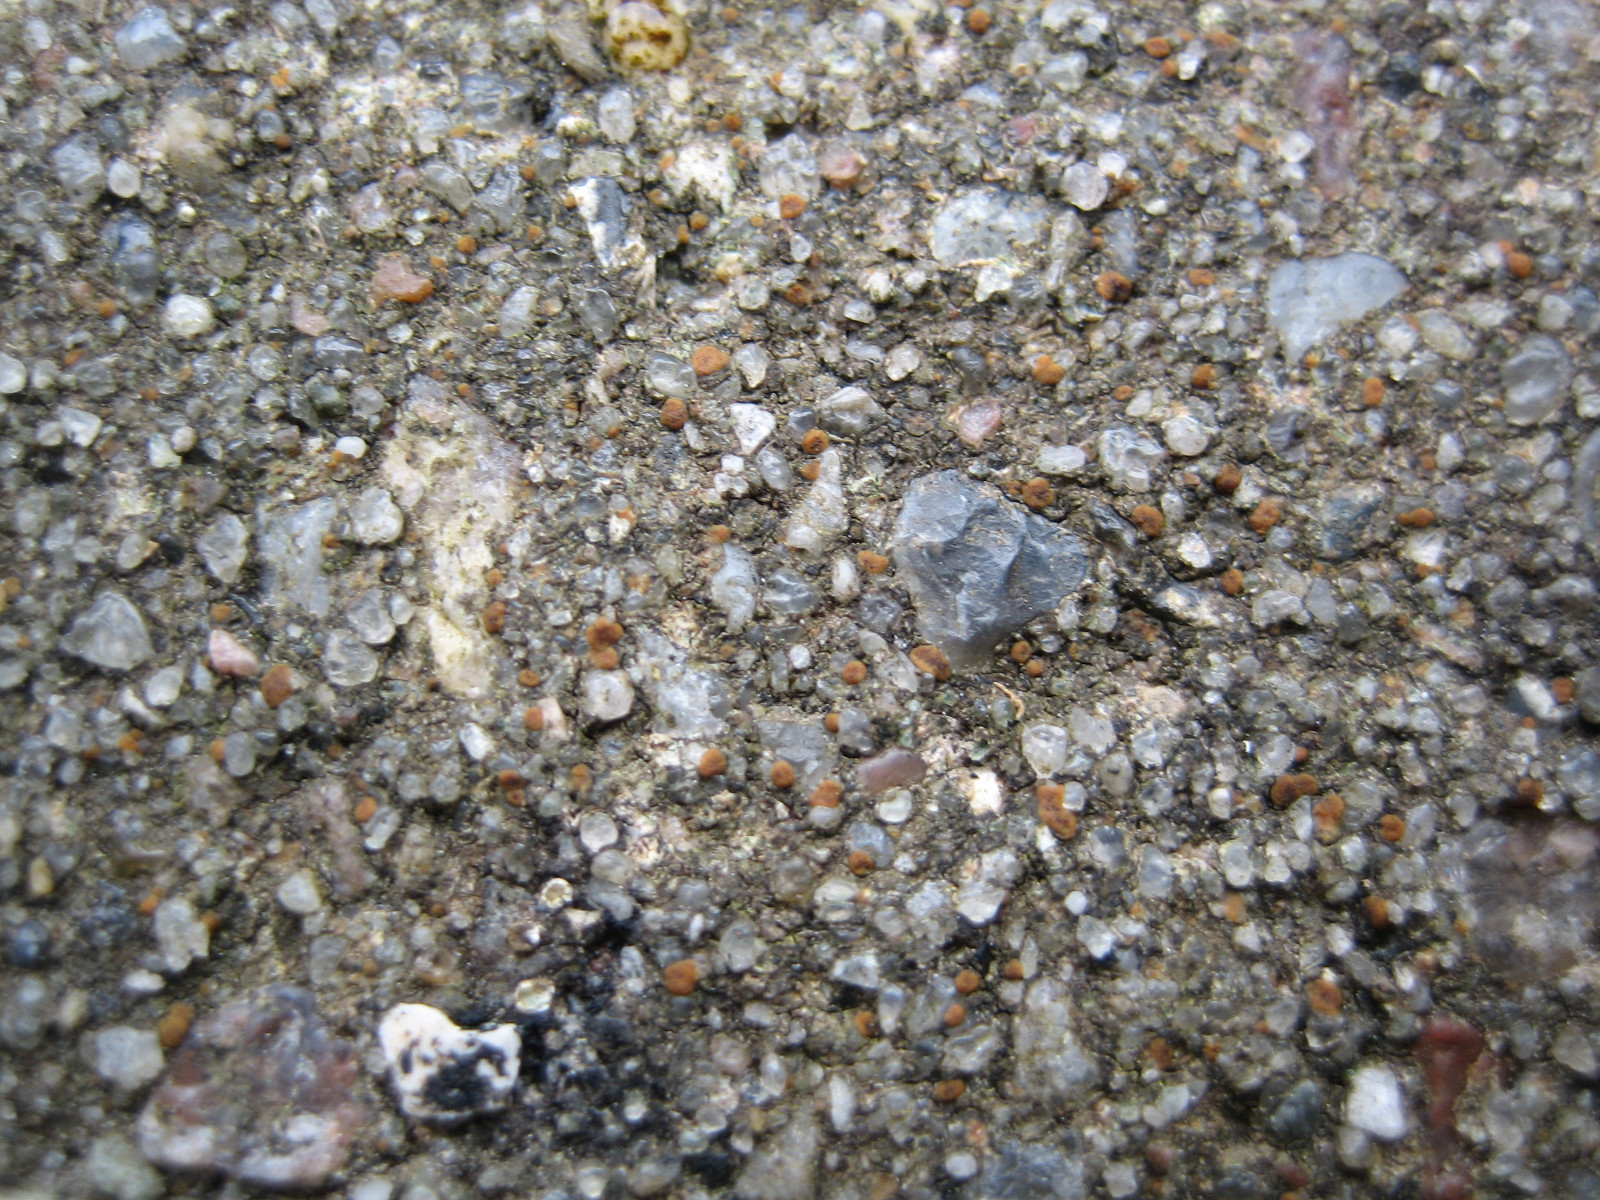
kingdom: Fungi
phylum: Ascomycota
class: Lecanoromycetes
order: Lecanorales
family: Psoraceae
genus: Protoblastenia
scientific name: Protoblastenia rupestris
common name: kalk-gulskivelav
